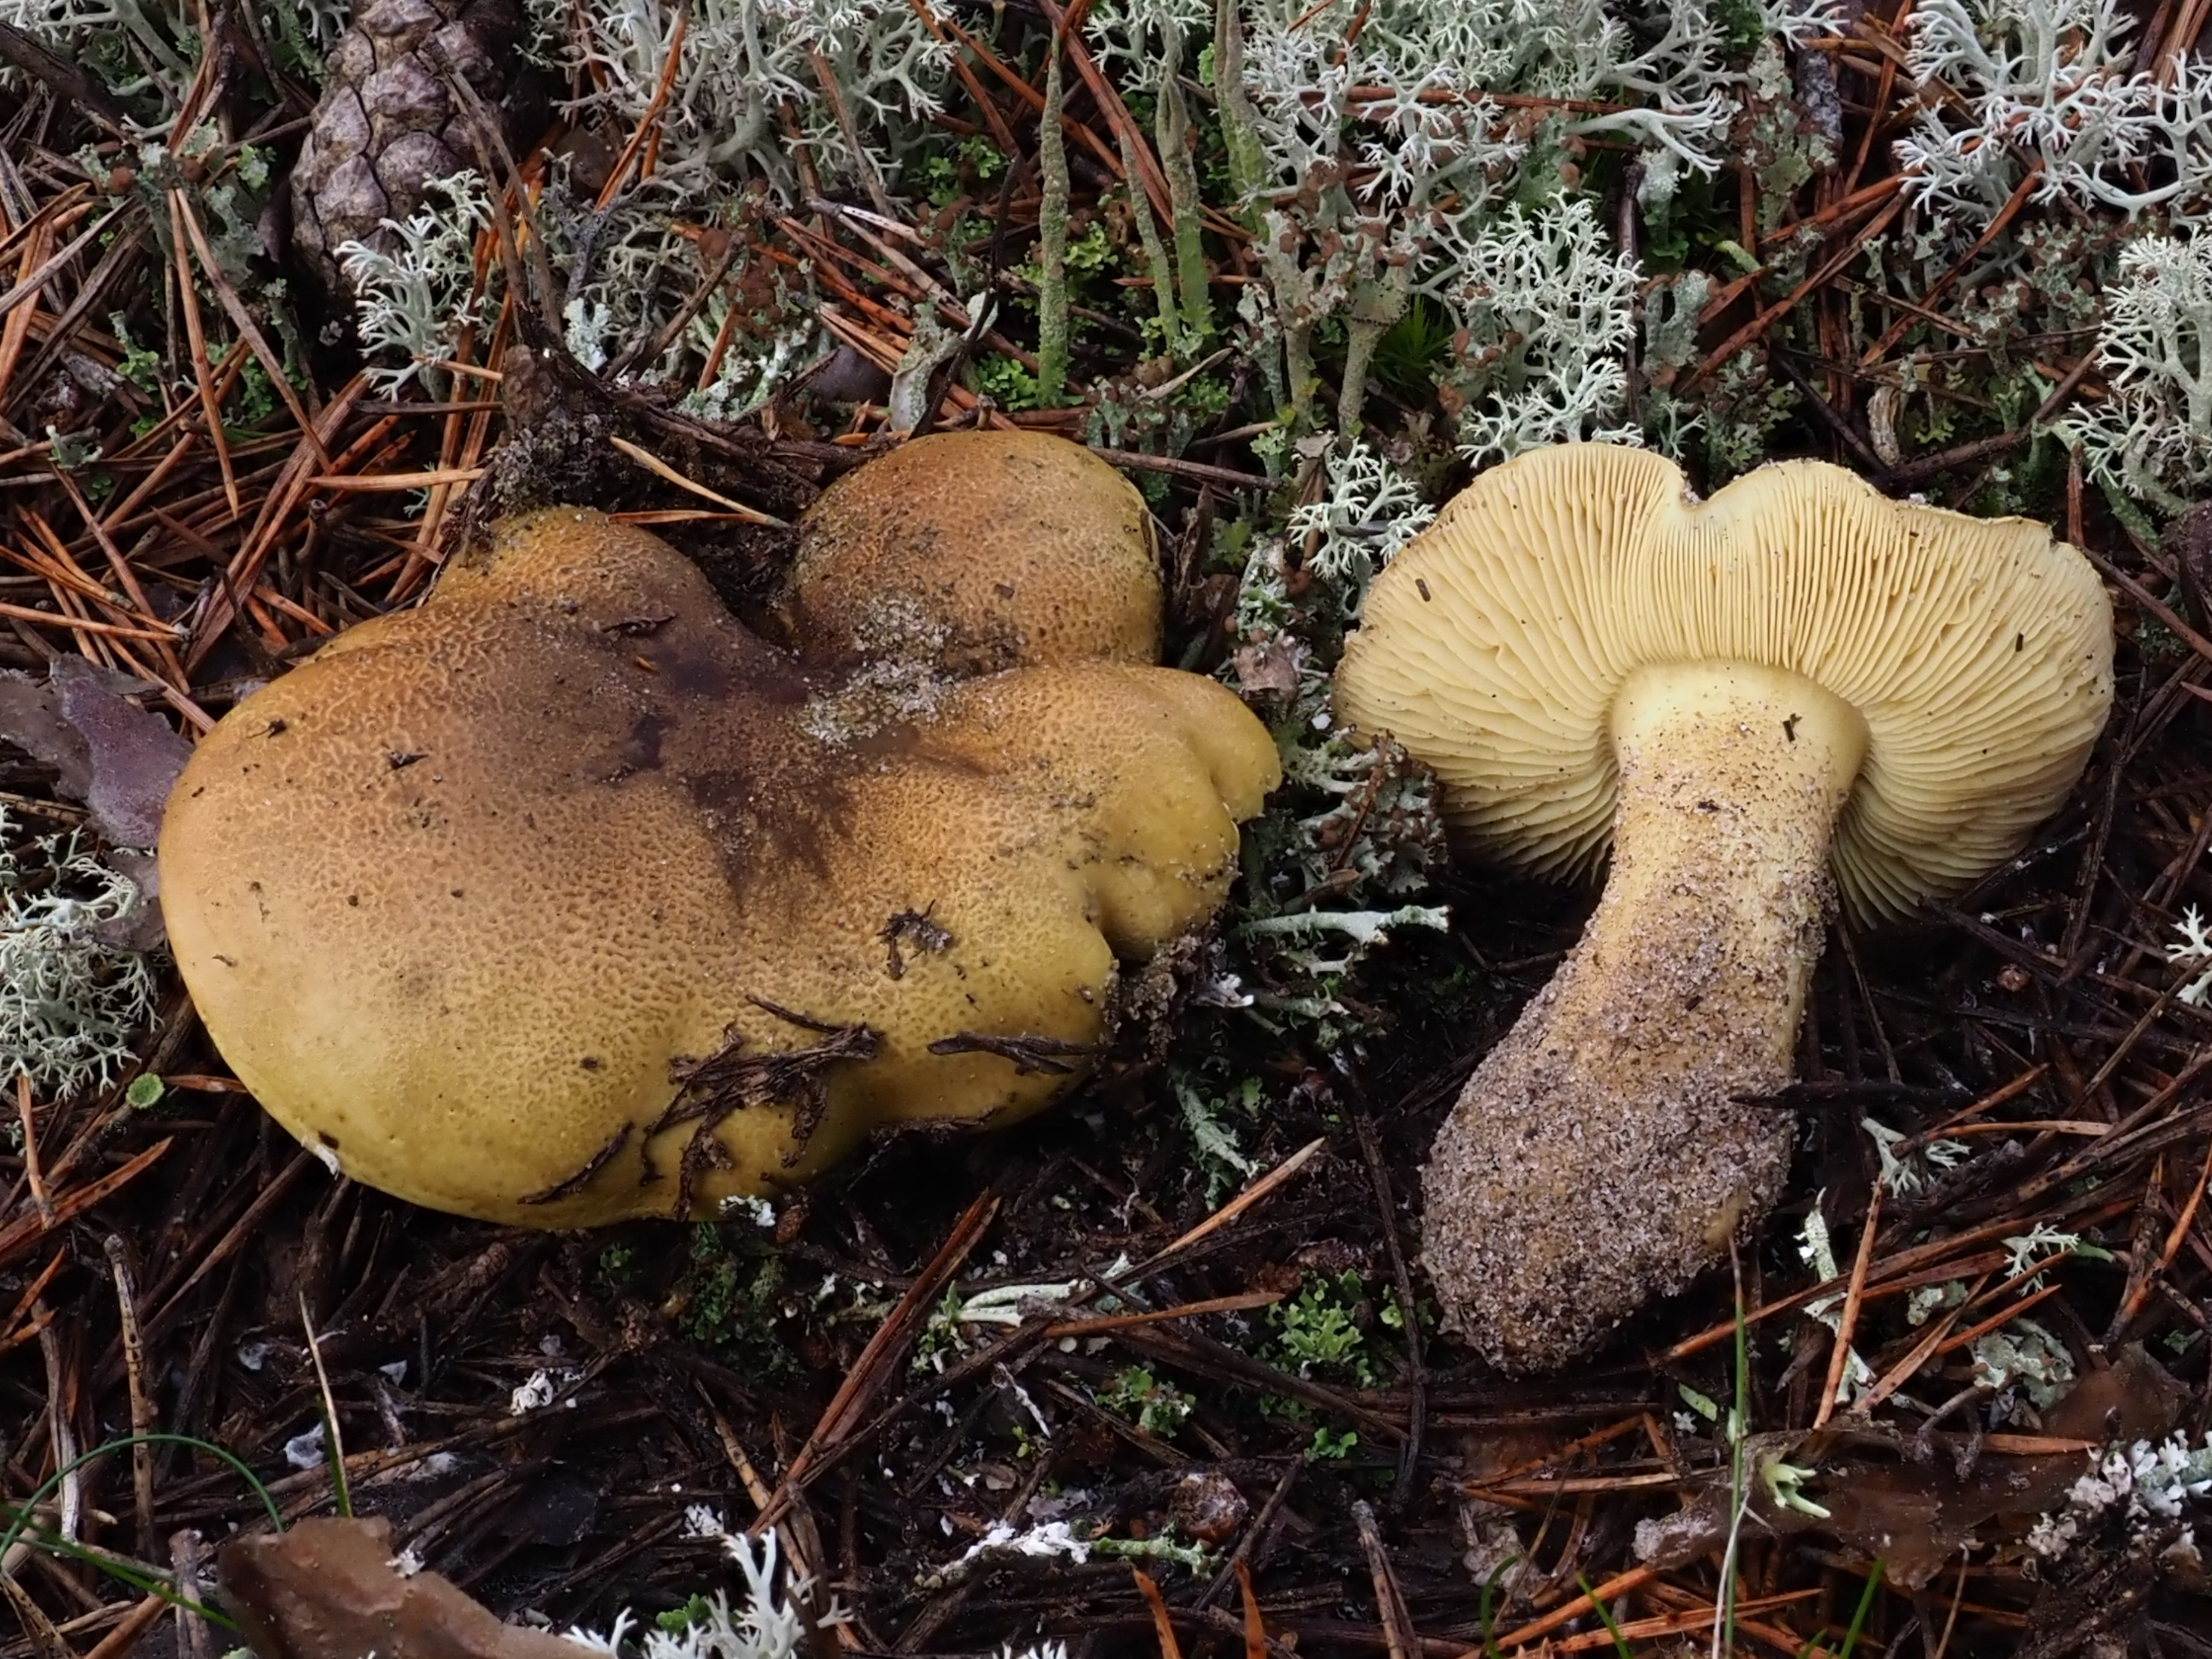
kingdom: Fungi
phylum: Basidiomycota
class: Agaricomycetes
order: Agaricales
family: Tricholomataceae
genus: Tricholoma
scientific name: Tricholoma equestre
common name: Yellow knight
